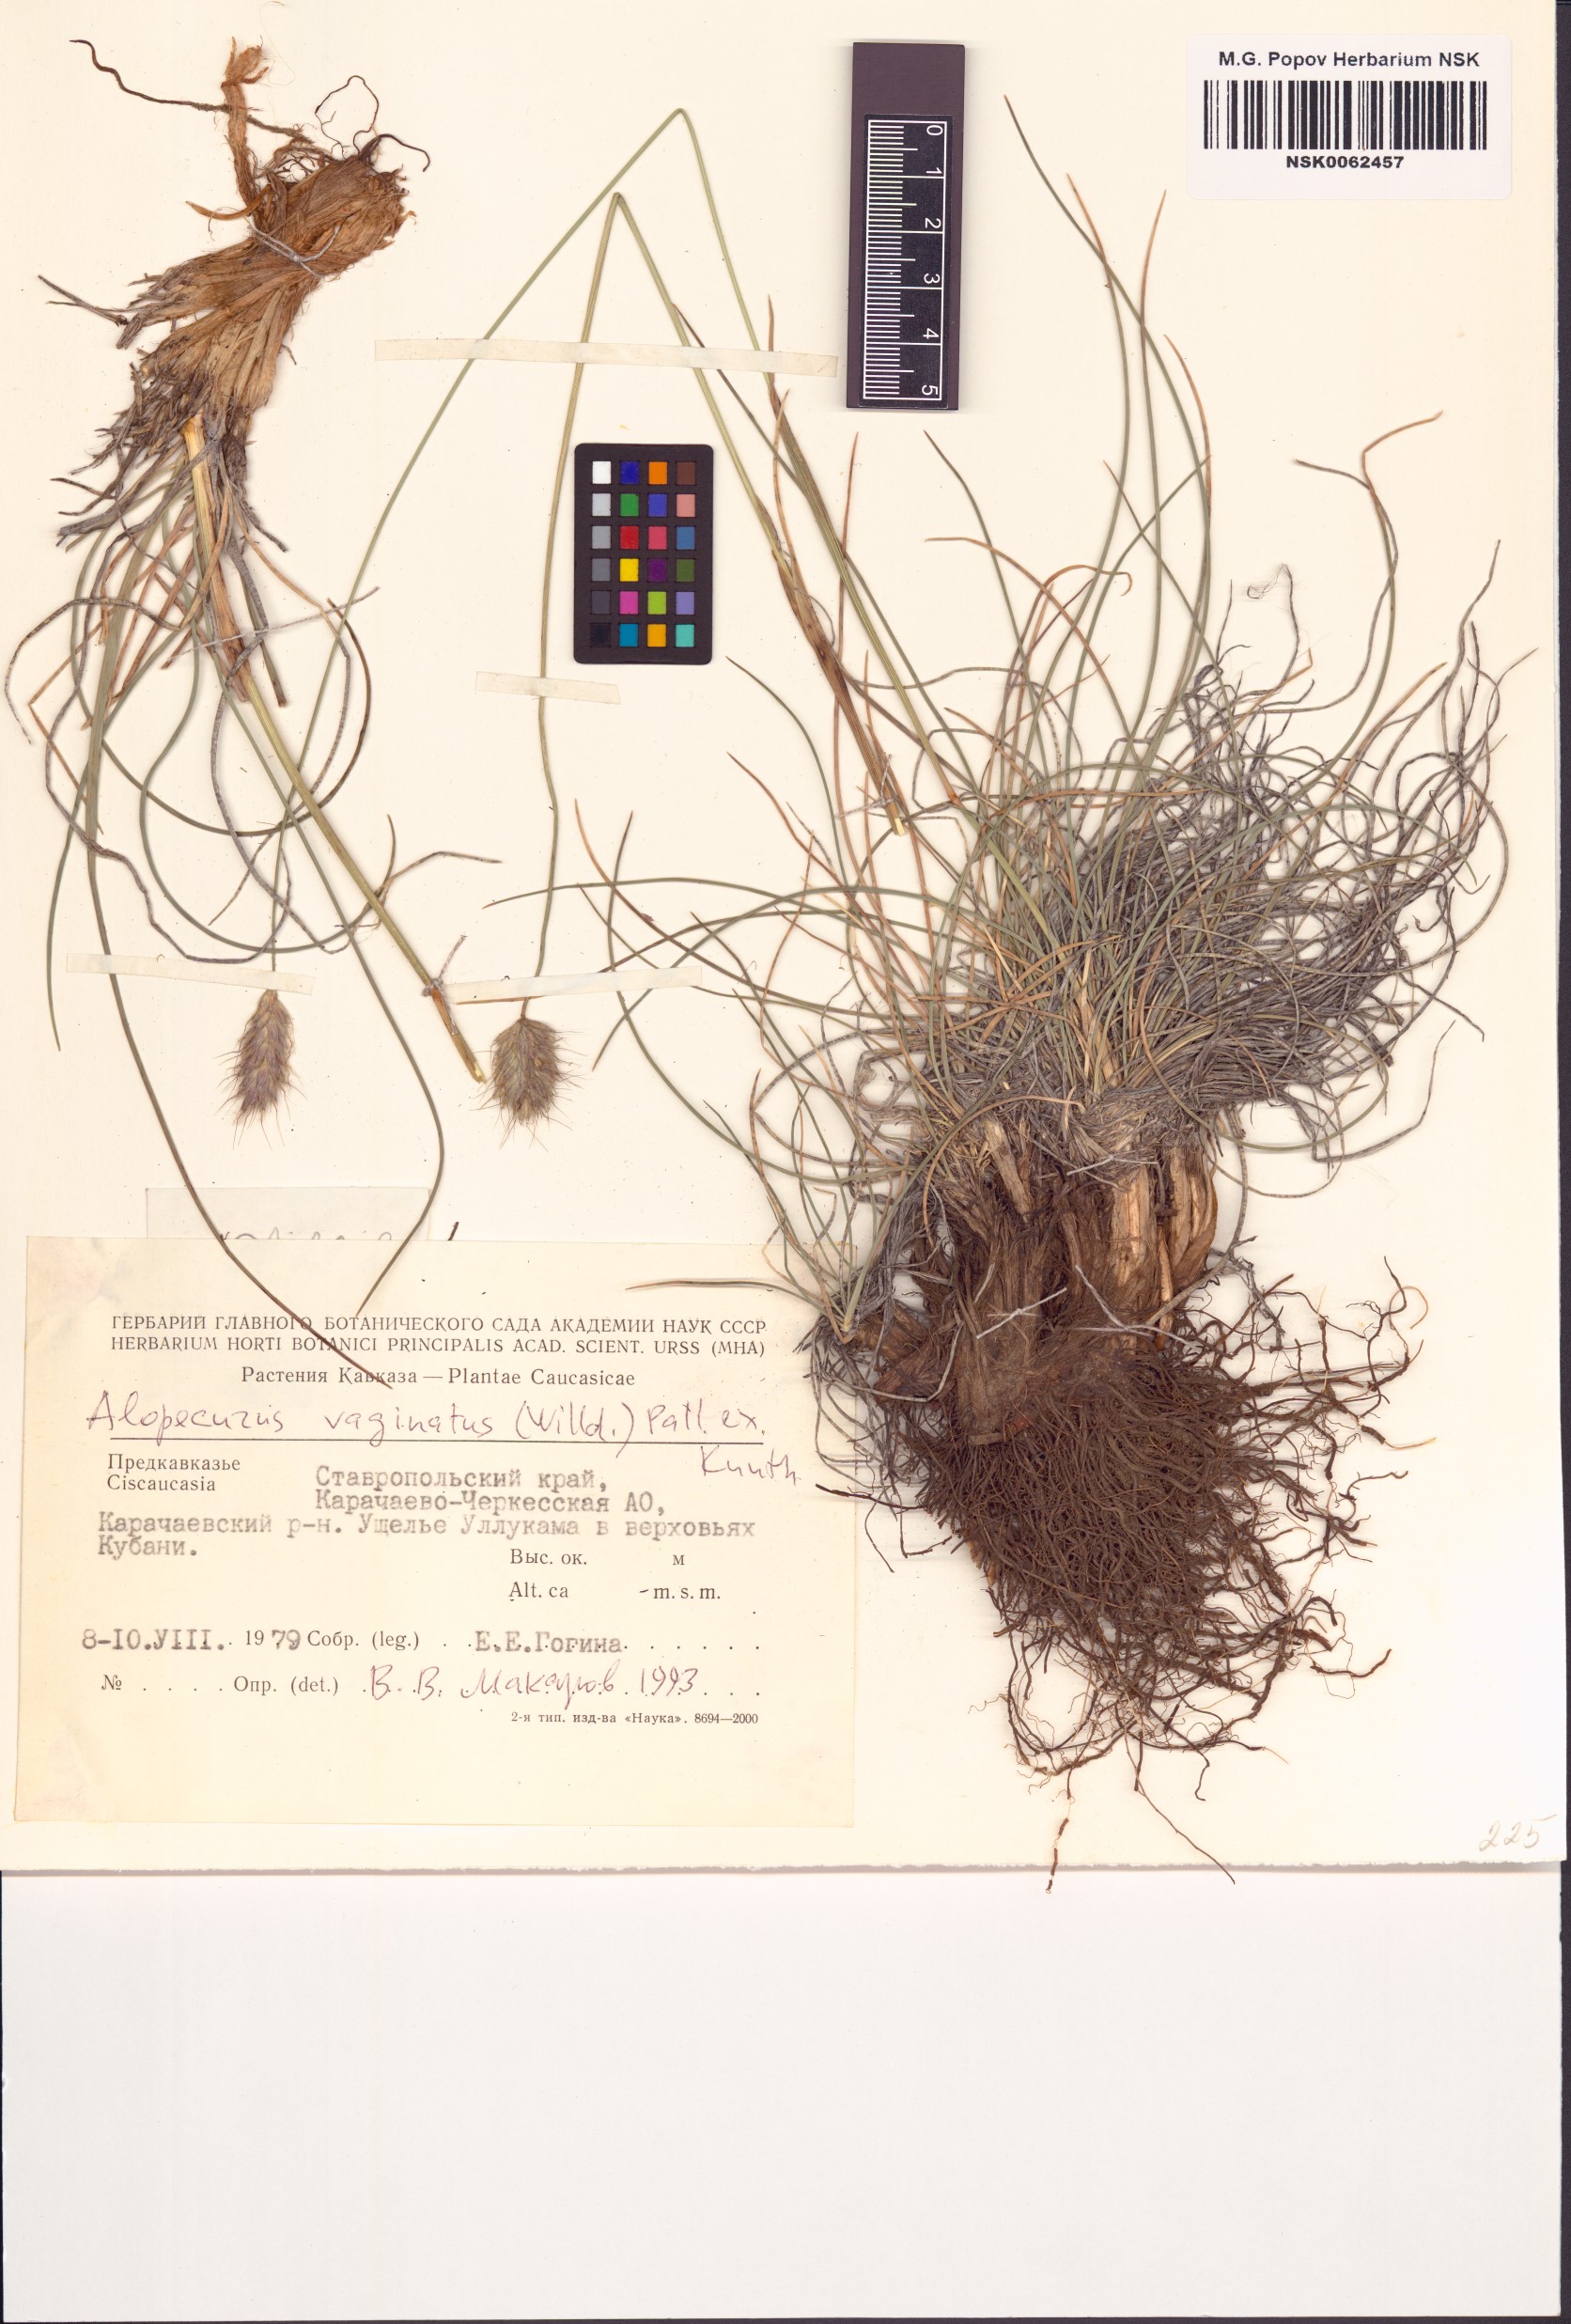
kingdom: Plantae
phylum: Tracheophyta
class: Liliopsida
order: Poales
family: Poaceae
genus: Alopecurus
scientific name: Alopecurus vaginatus
